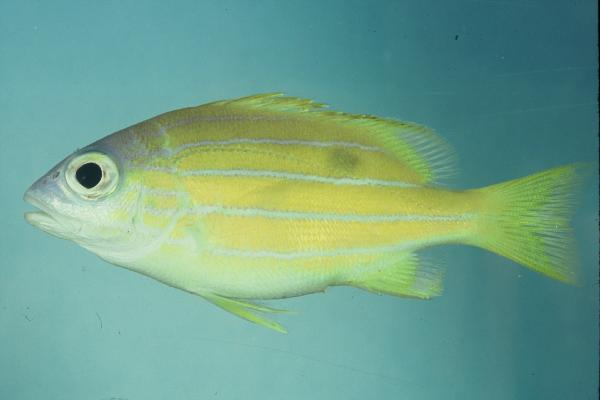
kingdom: Animalia
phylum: Chordata
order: Perciformes
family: Lutjanidae
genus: Lutjanus
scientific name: Lutjanus quinquelineatus
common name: Five-lined snapper
